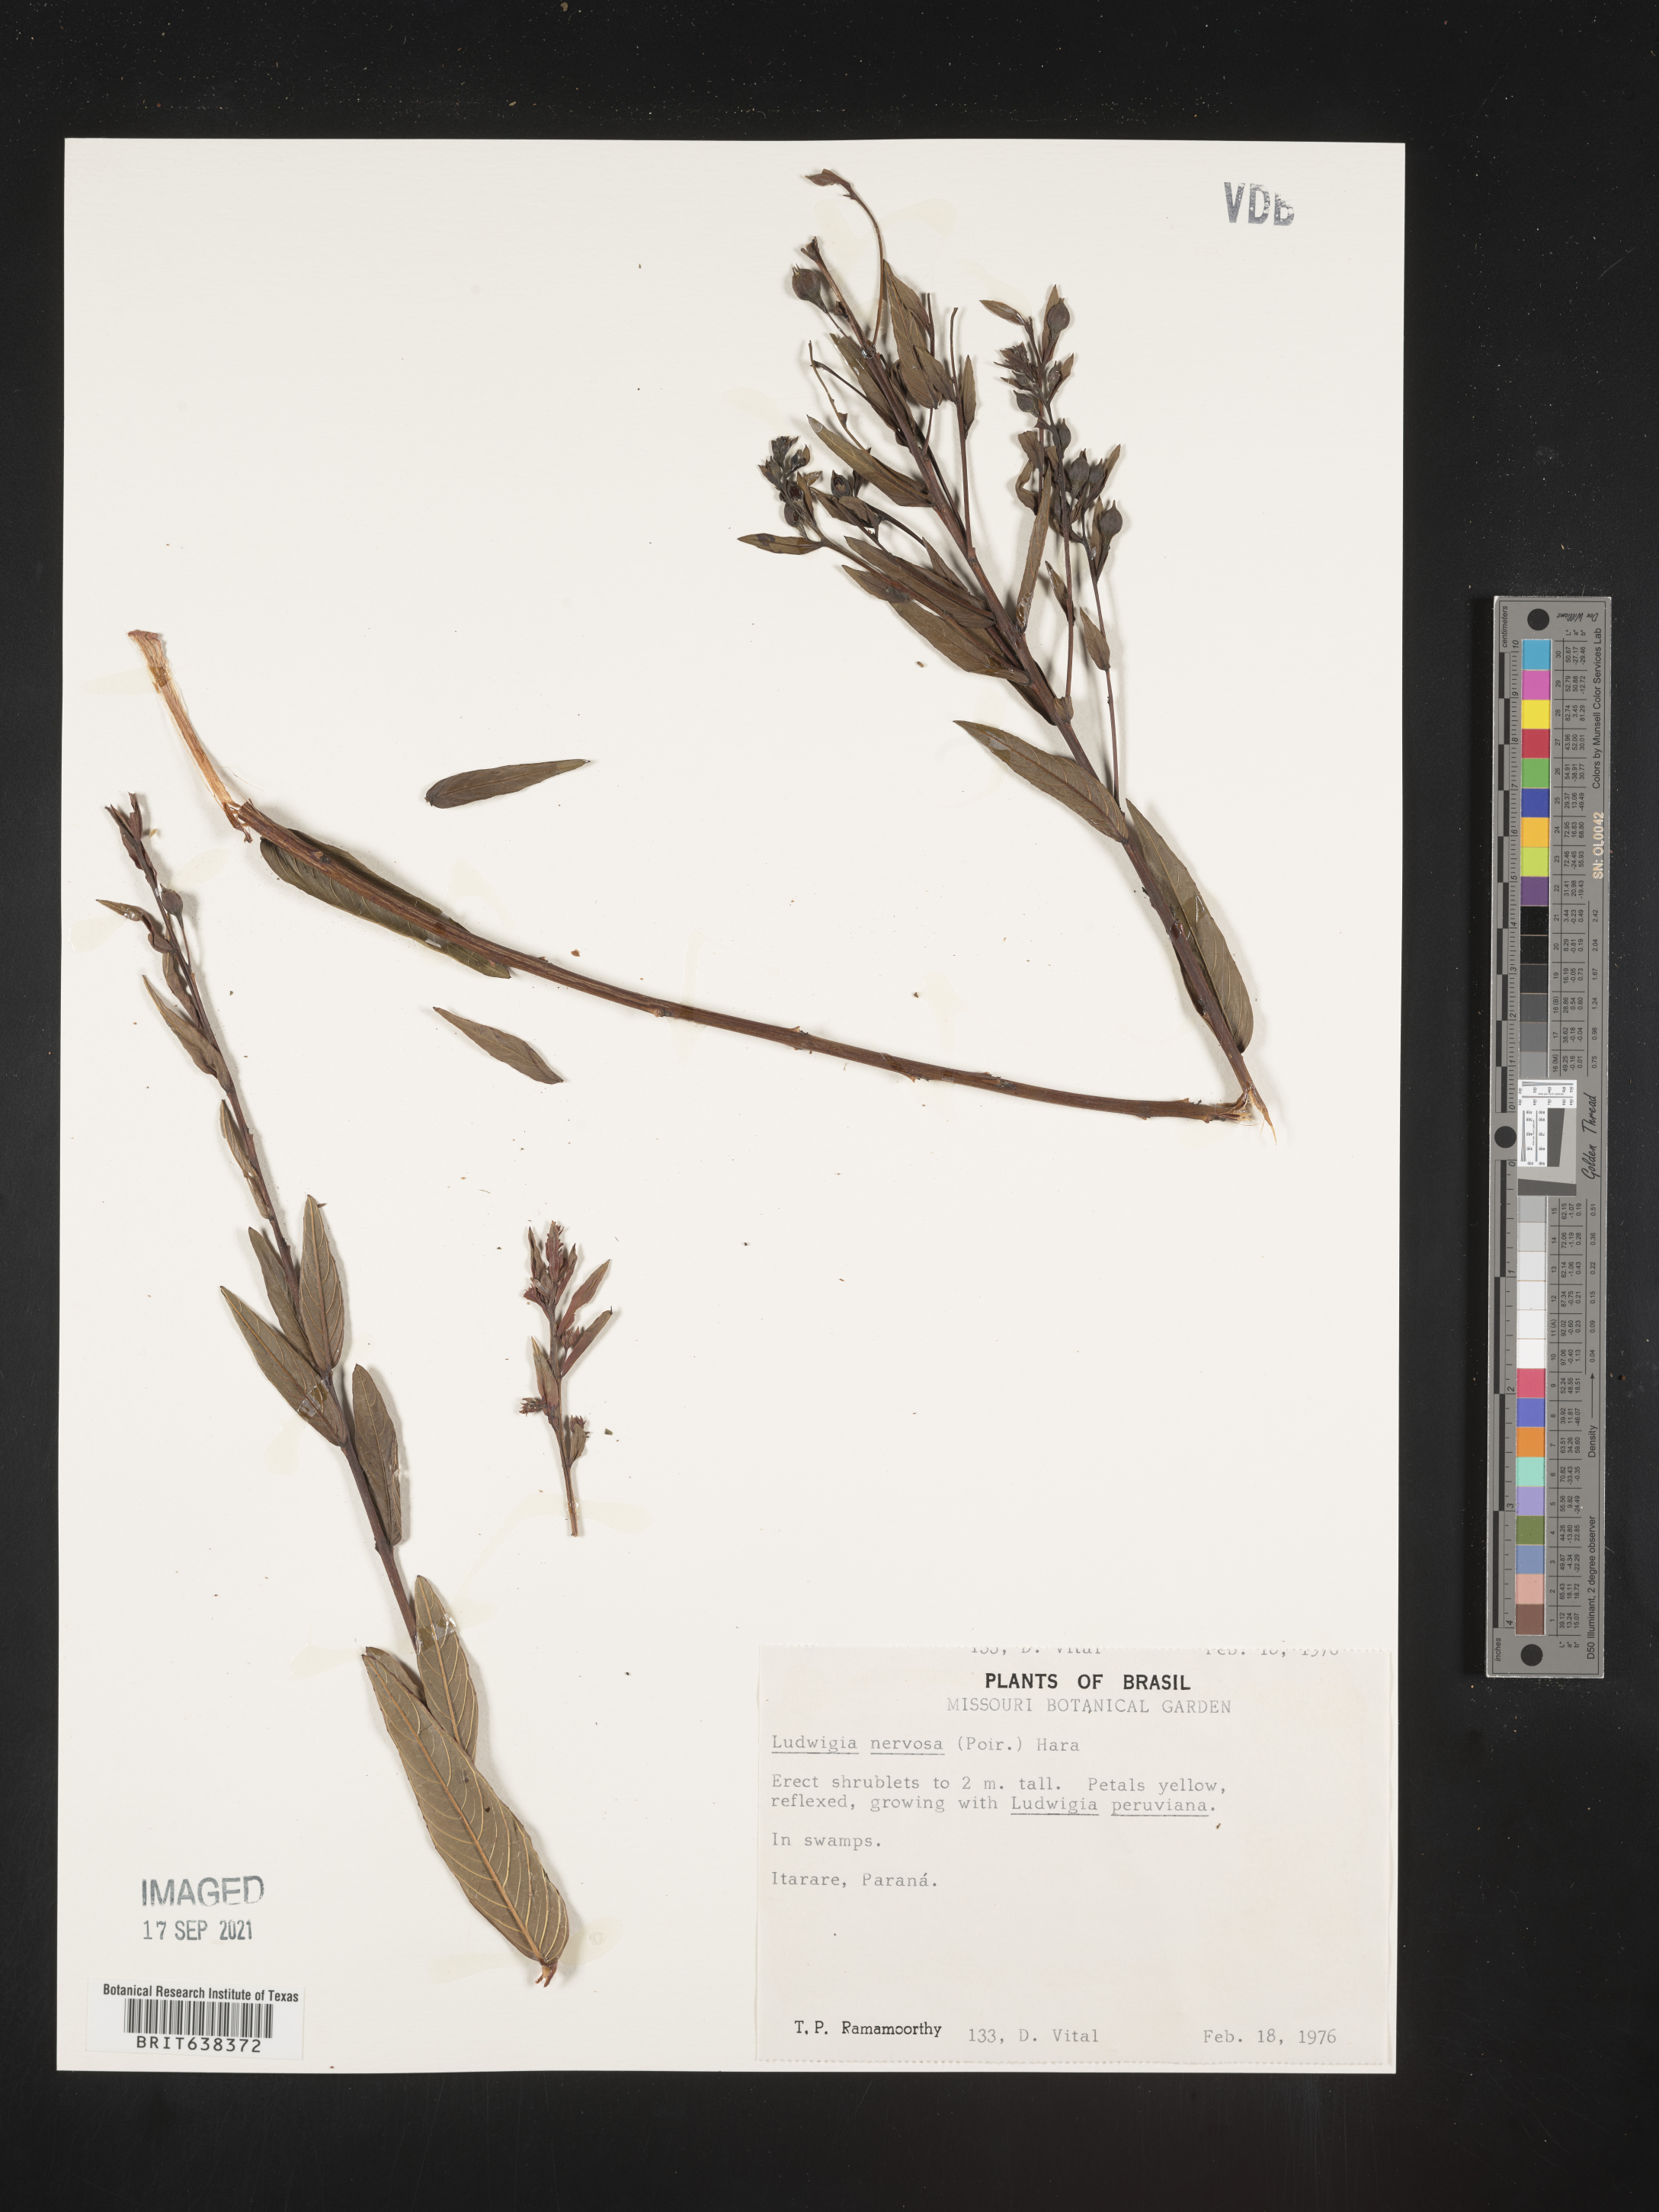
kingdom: Plantae
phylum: Tracheophyta
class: Magnoliopsida
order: Myrtales
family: Onagraceae
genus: Ludwigia
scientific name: Ludwigia
